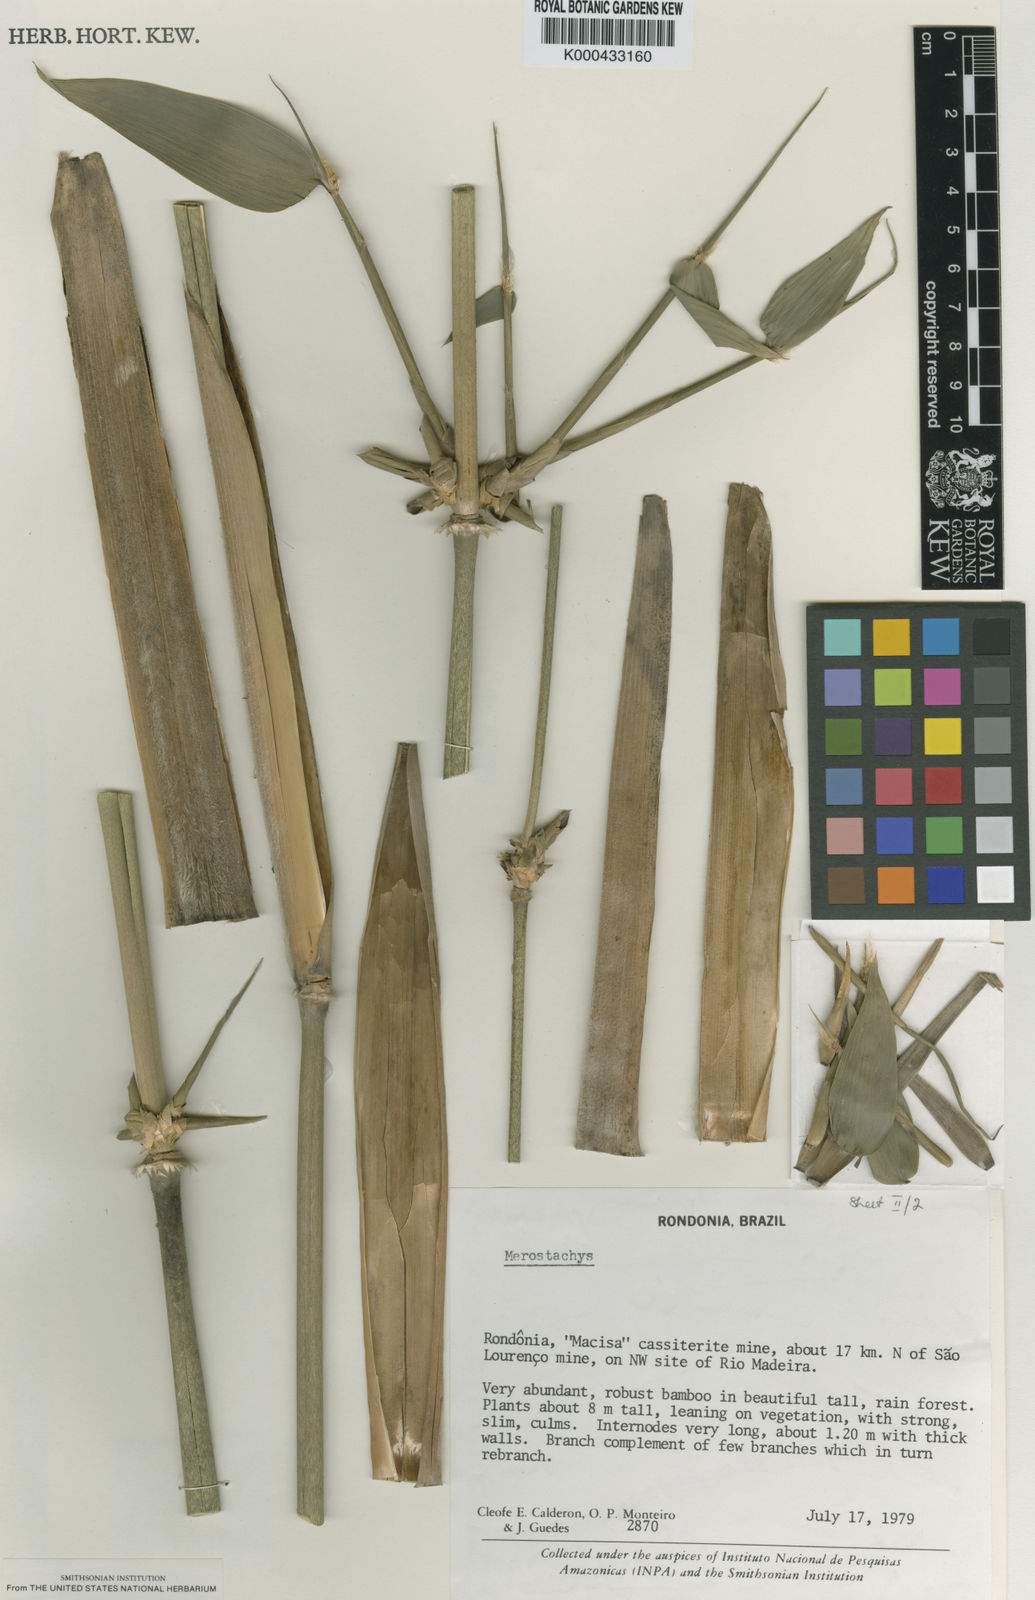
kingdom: Plantae
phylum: Tracheophyta
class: Liliopsida
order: Poales
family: Poaceae
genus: Merostachys
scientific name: Merostachys fimbriata
